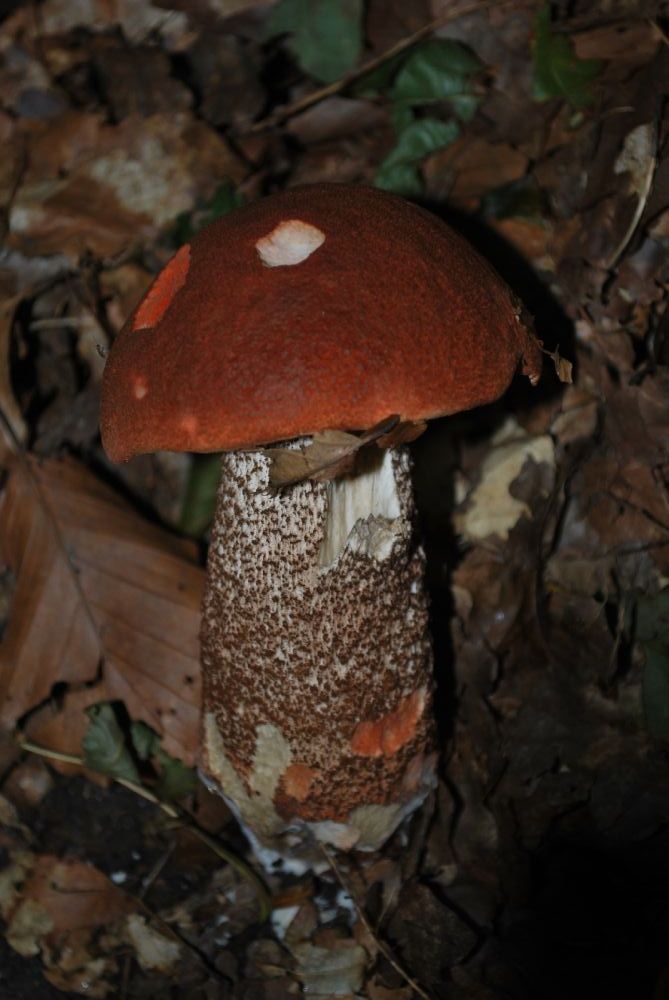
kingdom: Fungi
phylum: Basidiomycota
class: Agaricomycetes
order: Boletales
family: Boletaceae
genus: Leccinum
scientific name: Leccinum aurantiacum
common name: rustrød skælrørhat
